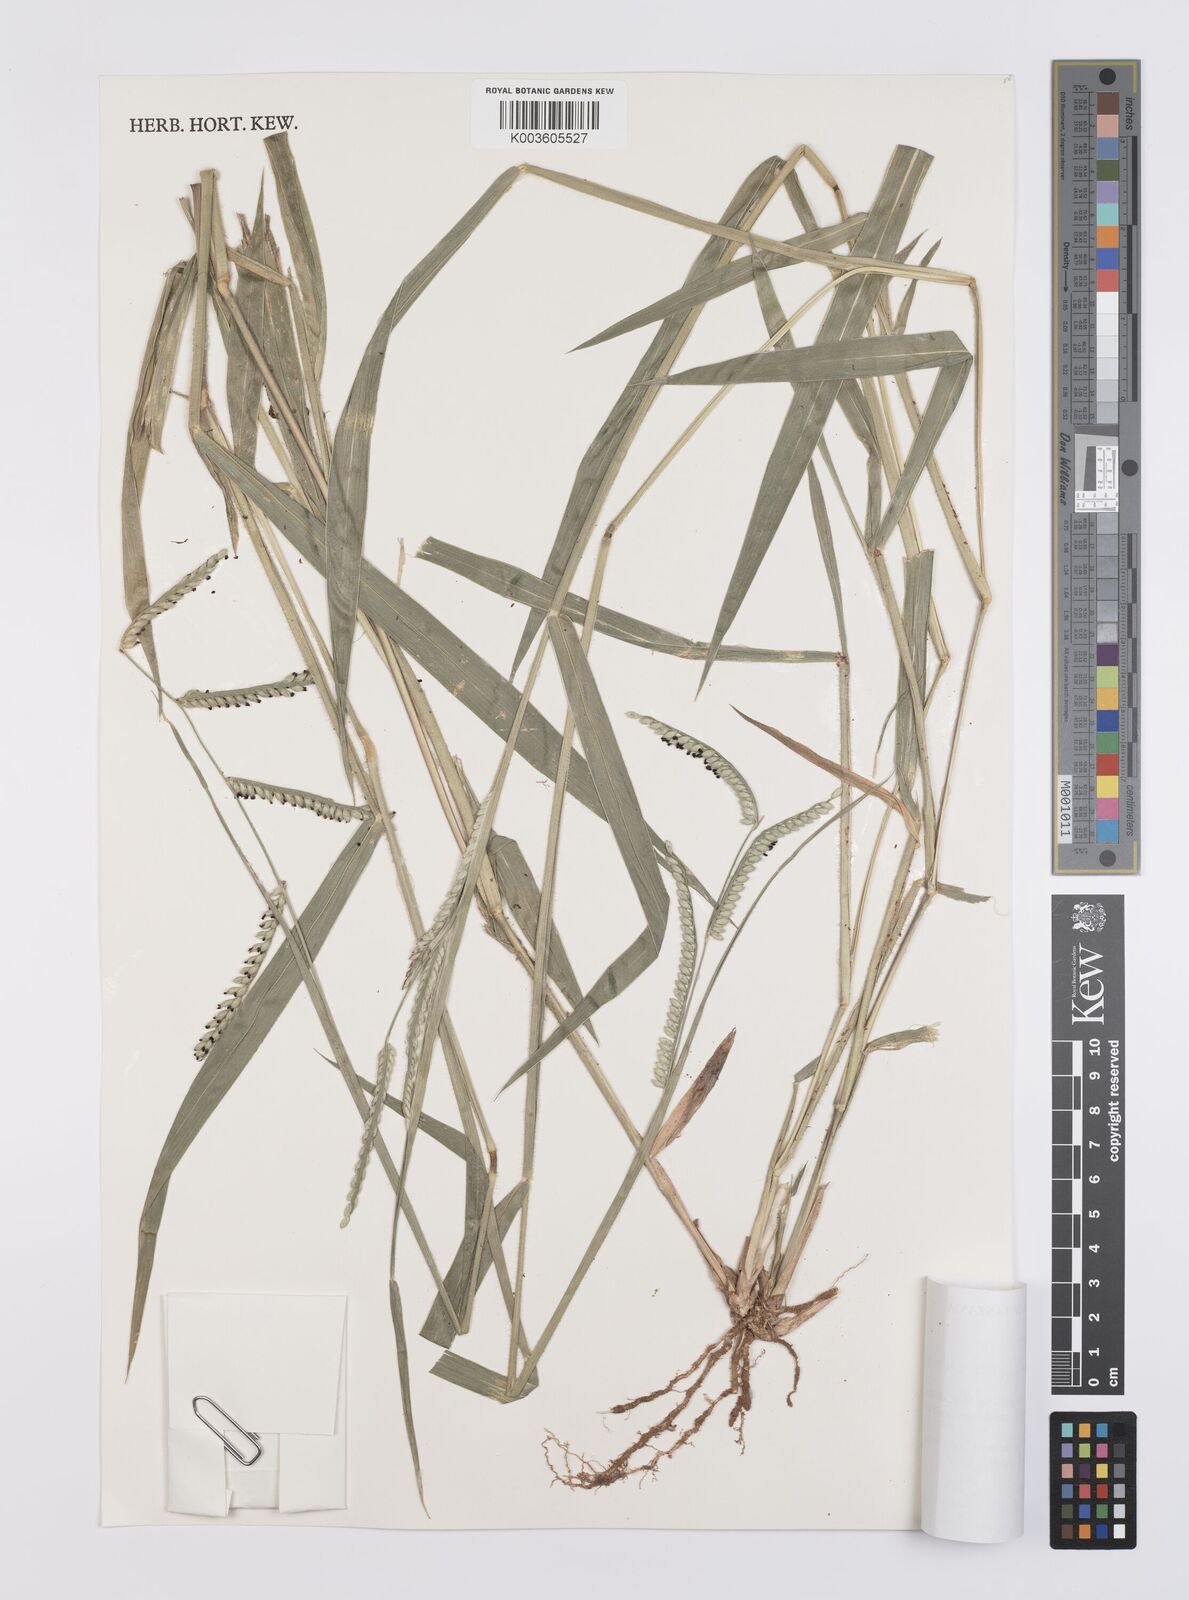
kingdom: Plantae
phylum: Tracheophyta
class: Liliopsida
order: Poales
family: Poaceae
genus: Urochloa
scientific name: Urochloa eminii
